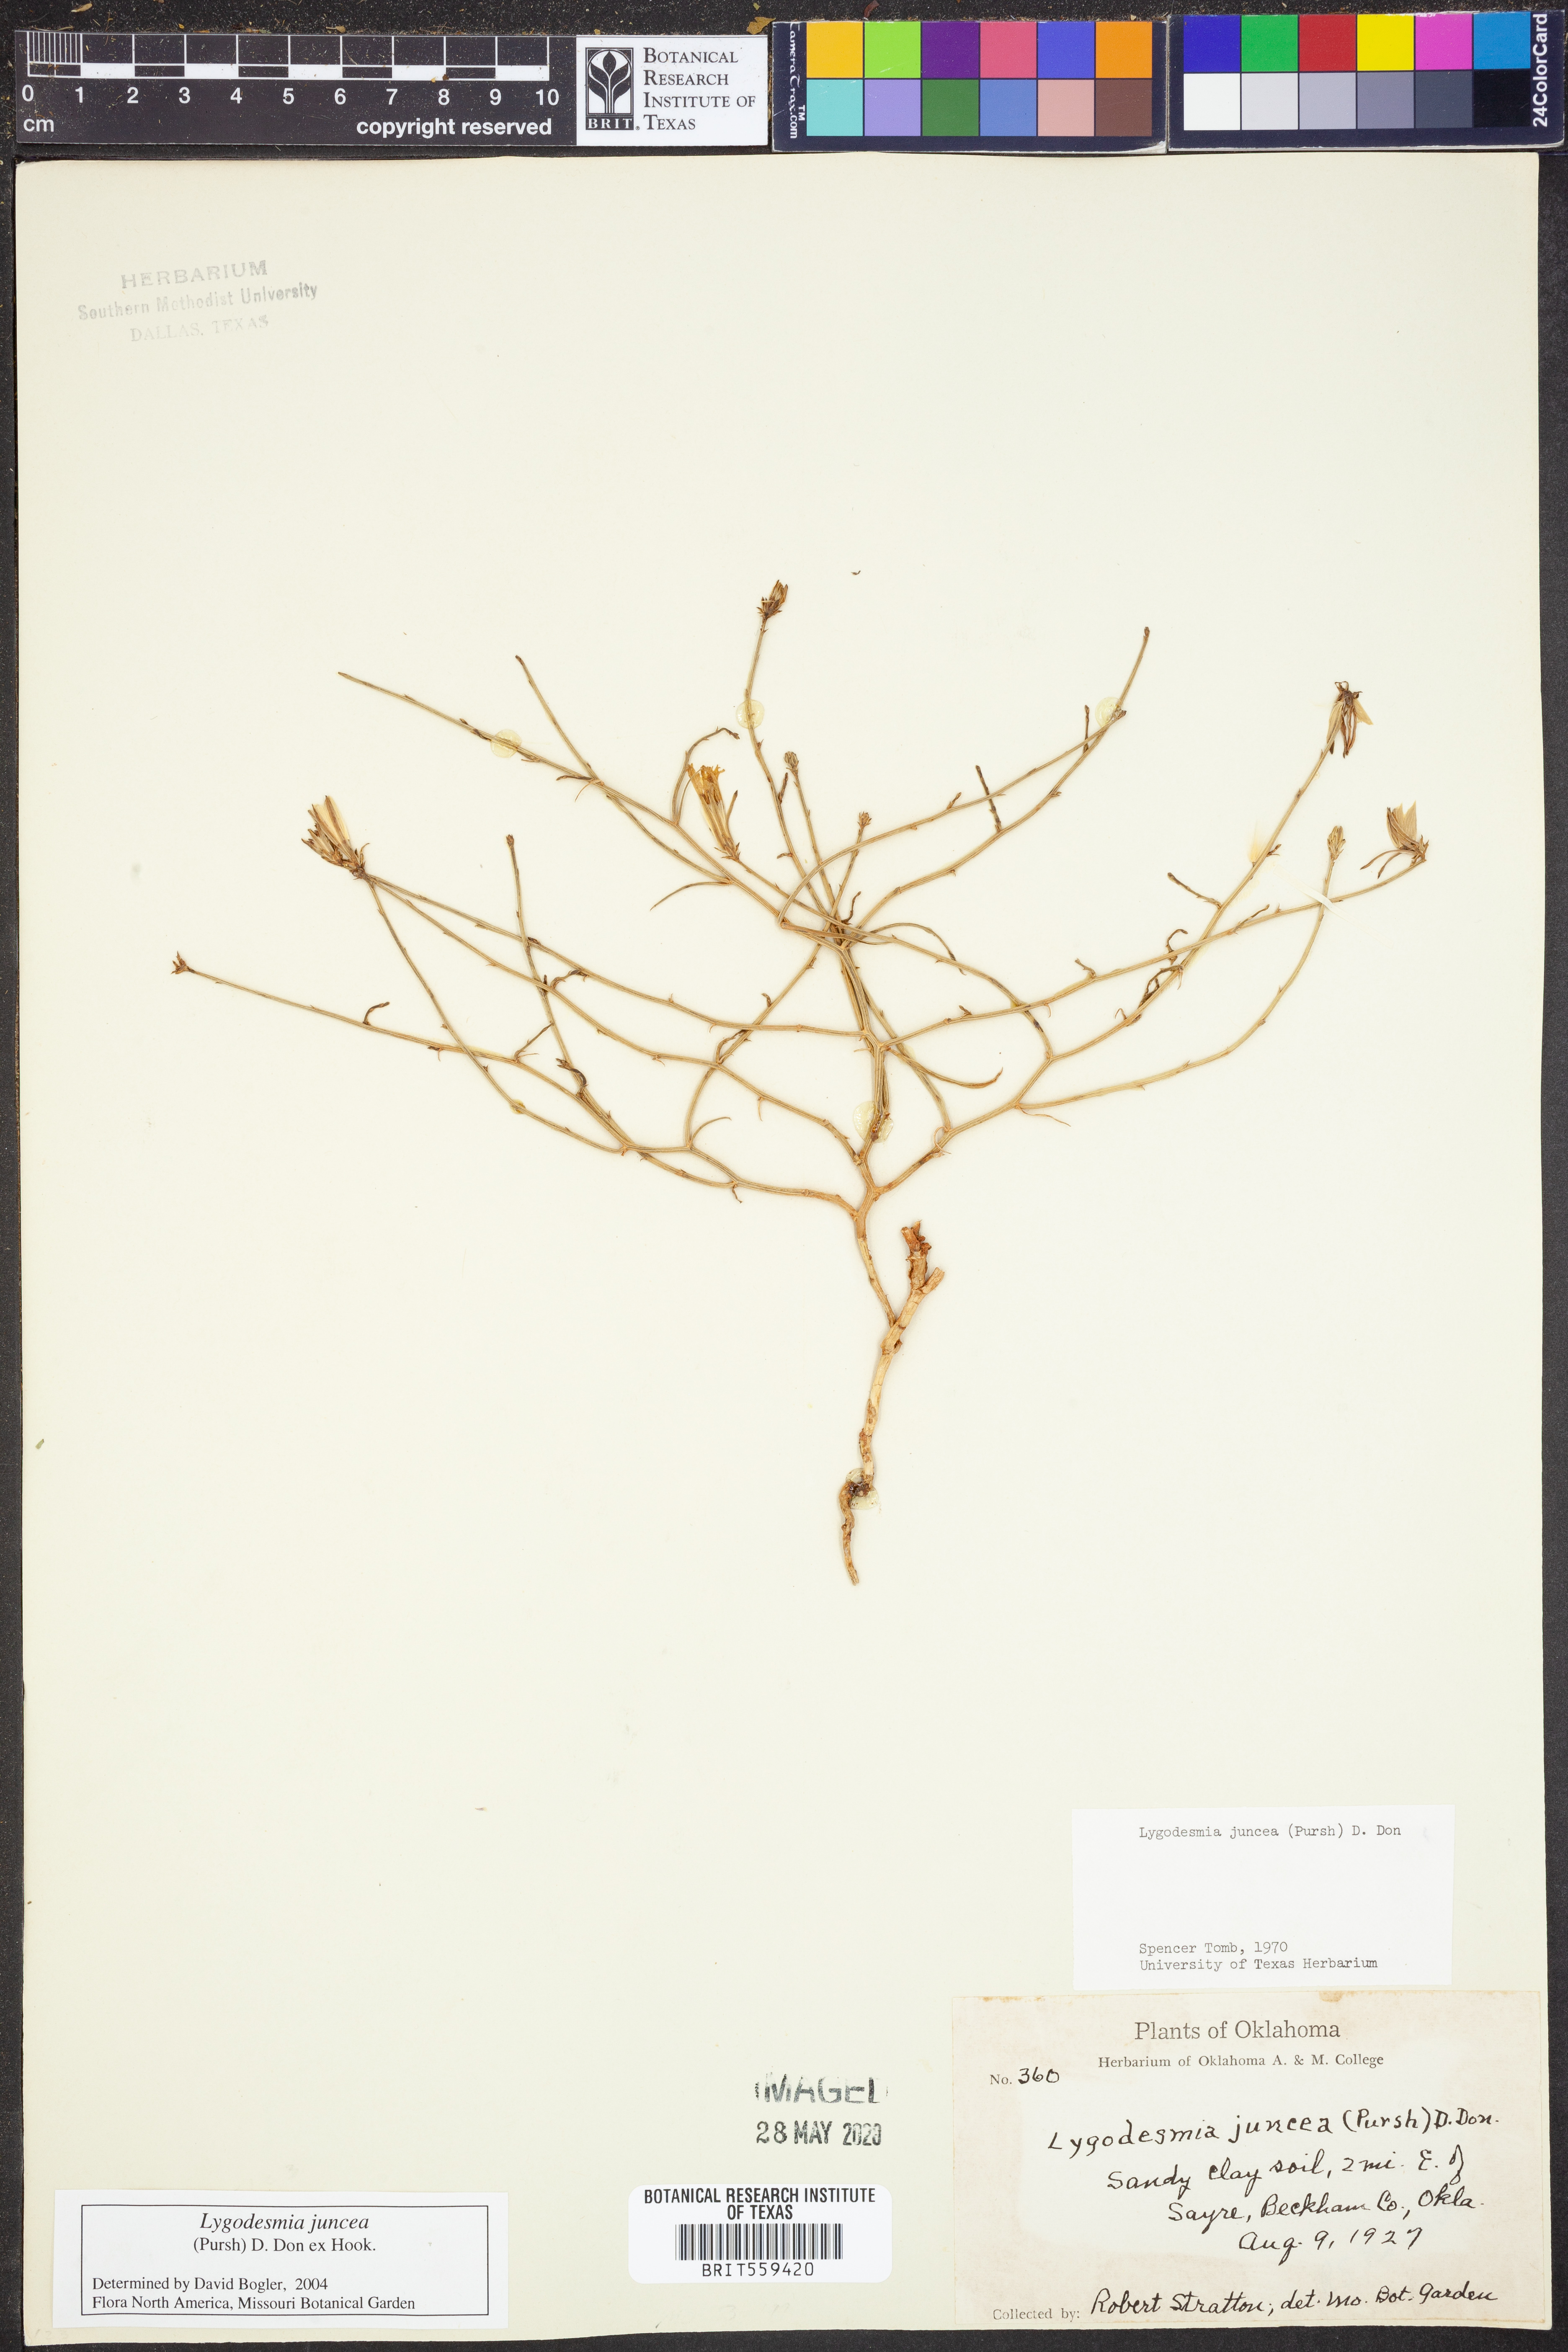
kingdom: Plantae
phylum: Tracheophyta
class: Magnoliopsida
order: Asterales
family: Asteraceae
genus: Lygodesmia
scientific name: Lygodesmia juncea
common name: Common skeletonweed
